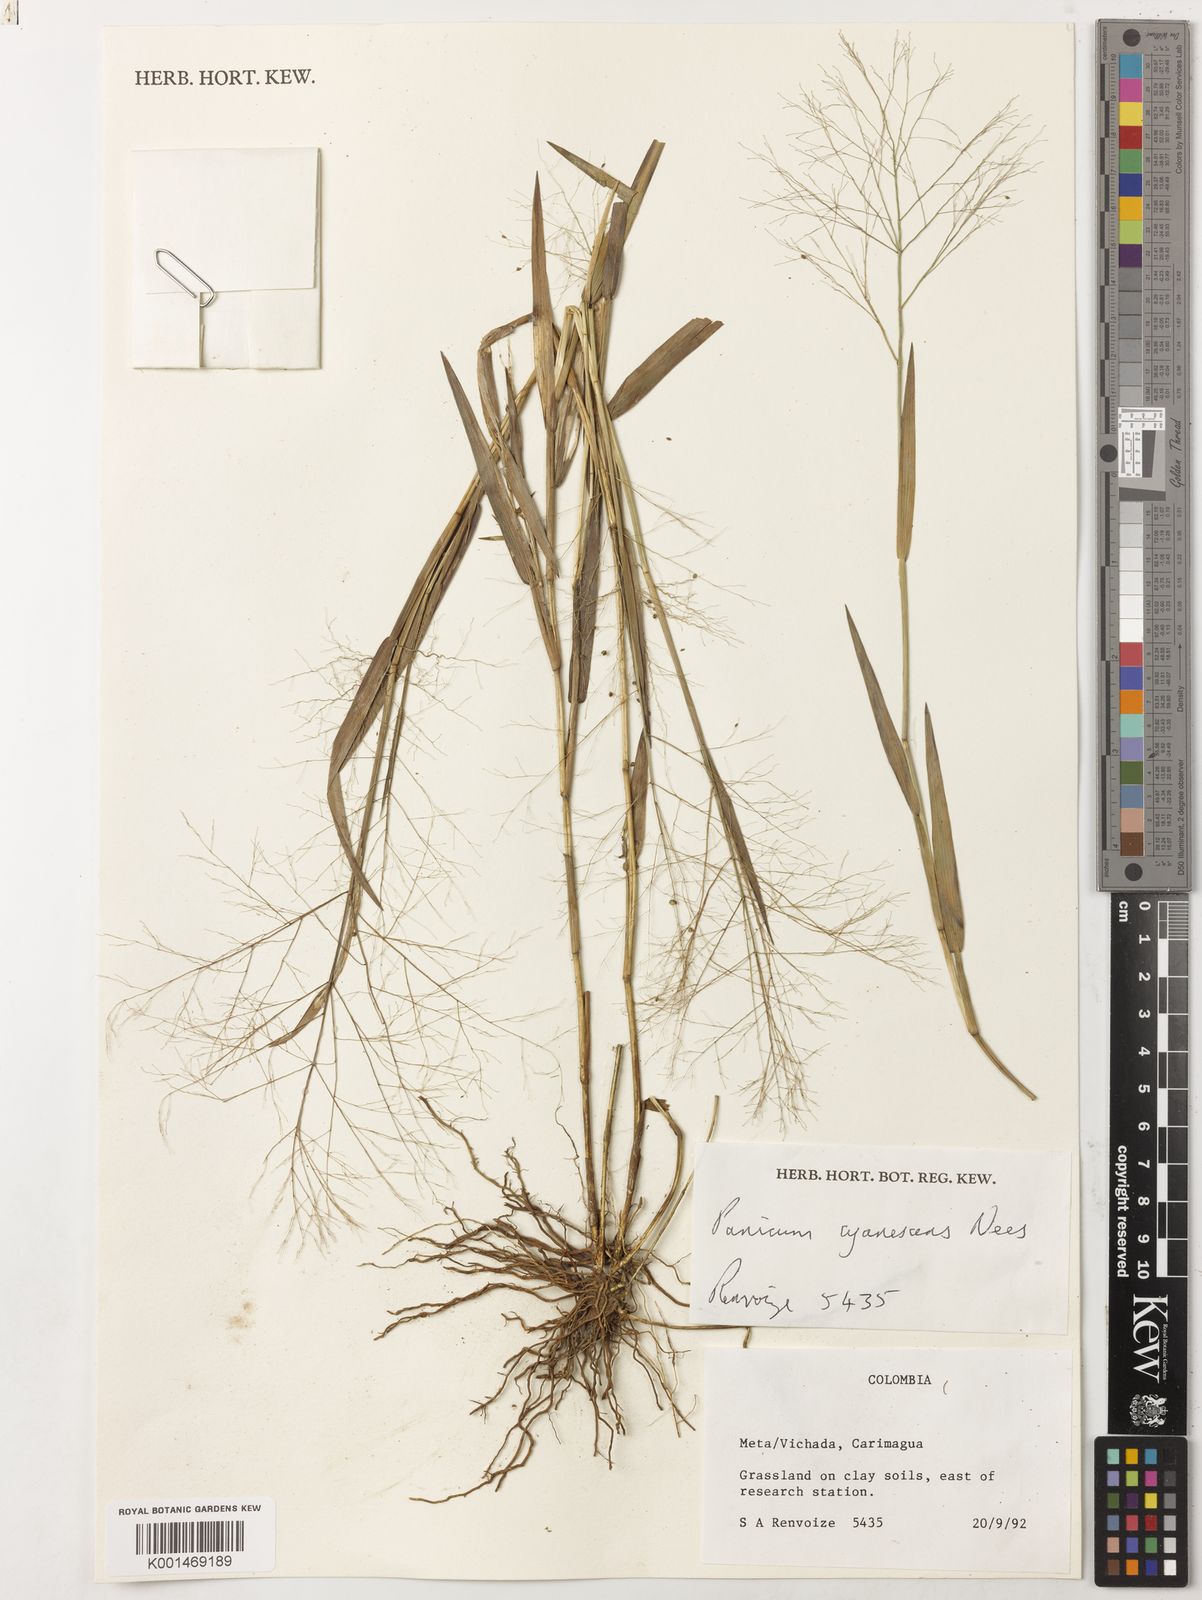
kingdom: Plantae
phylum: Tracheophyta
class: Liliopsida
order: Poales
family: Poaceae
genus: Trichanthecium
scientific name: Trichanthecium cyanescens
